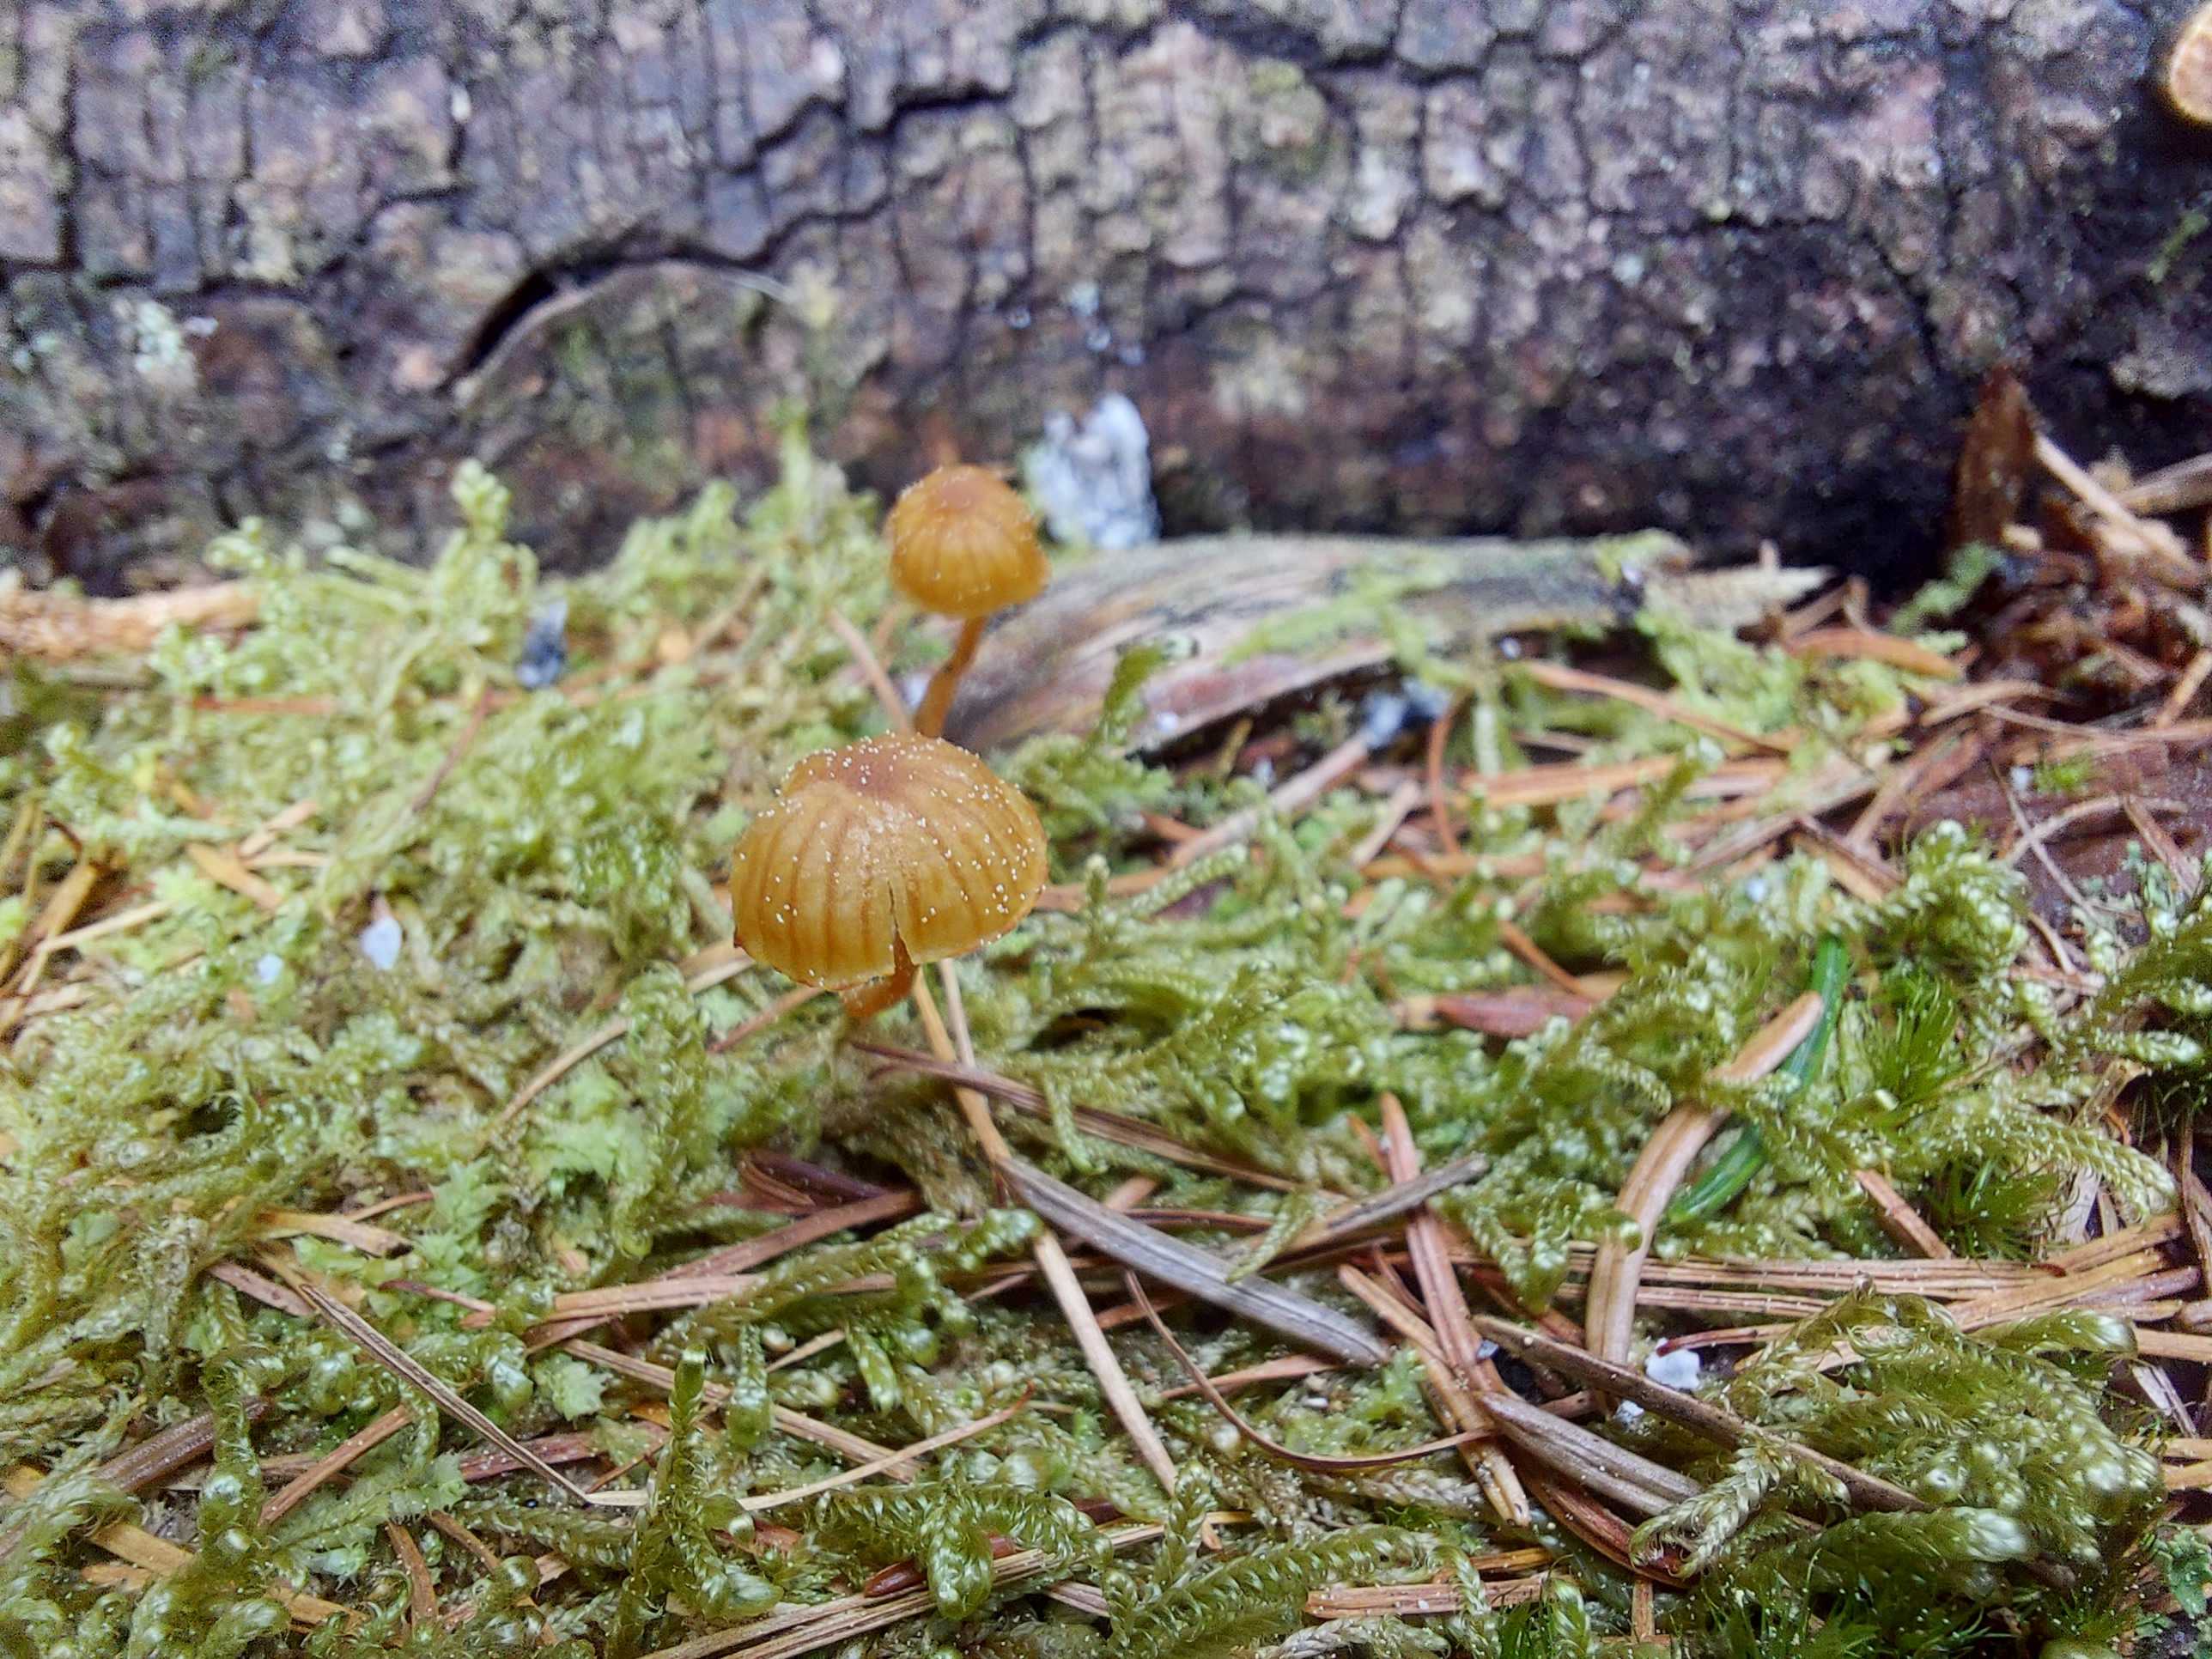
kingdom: Fungi
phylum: Basidiomycota
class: Agaricomycetes
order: Agaricales
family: Hymenogastraceae
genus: Galerina
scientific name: Galerina
